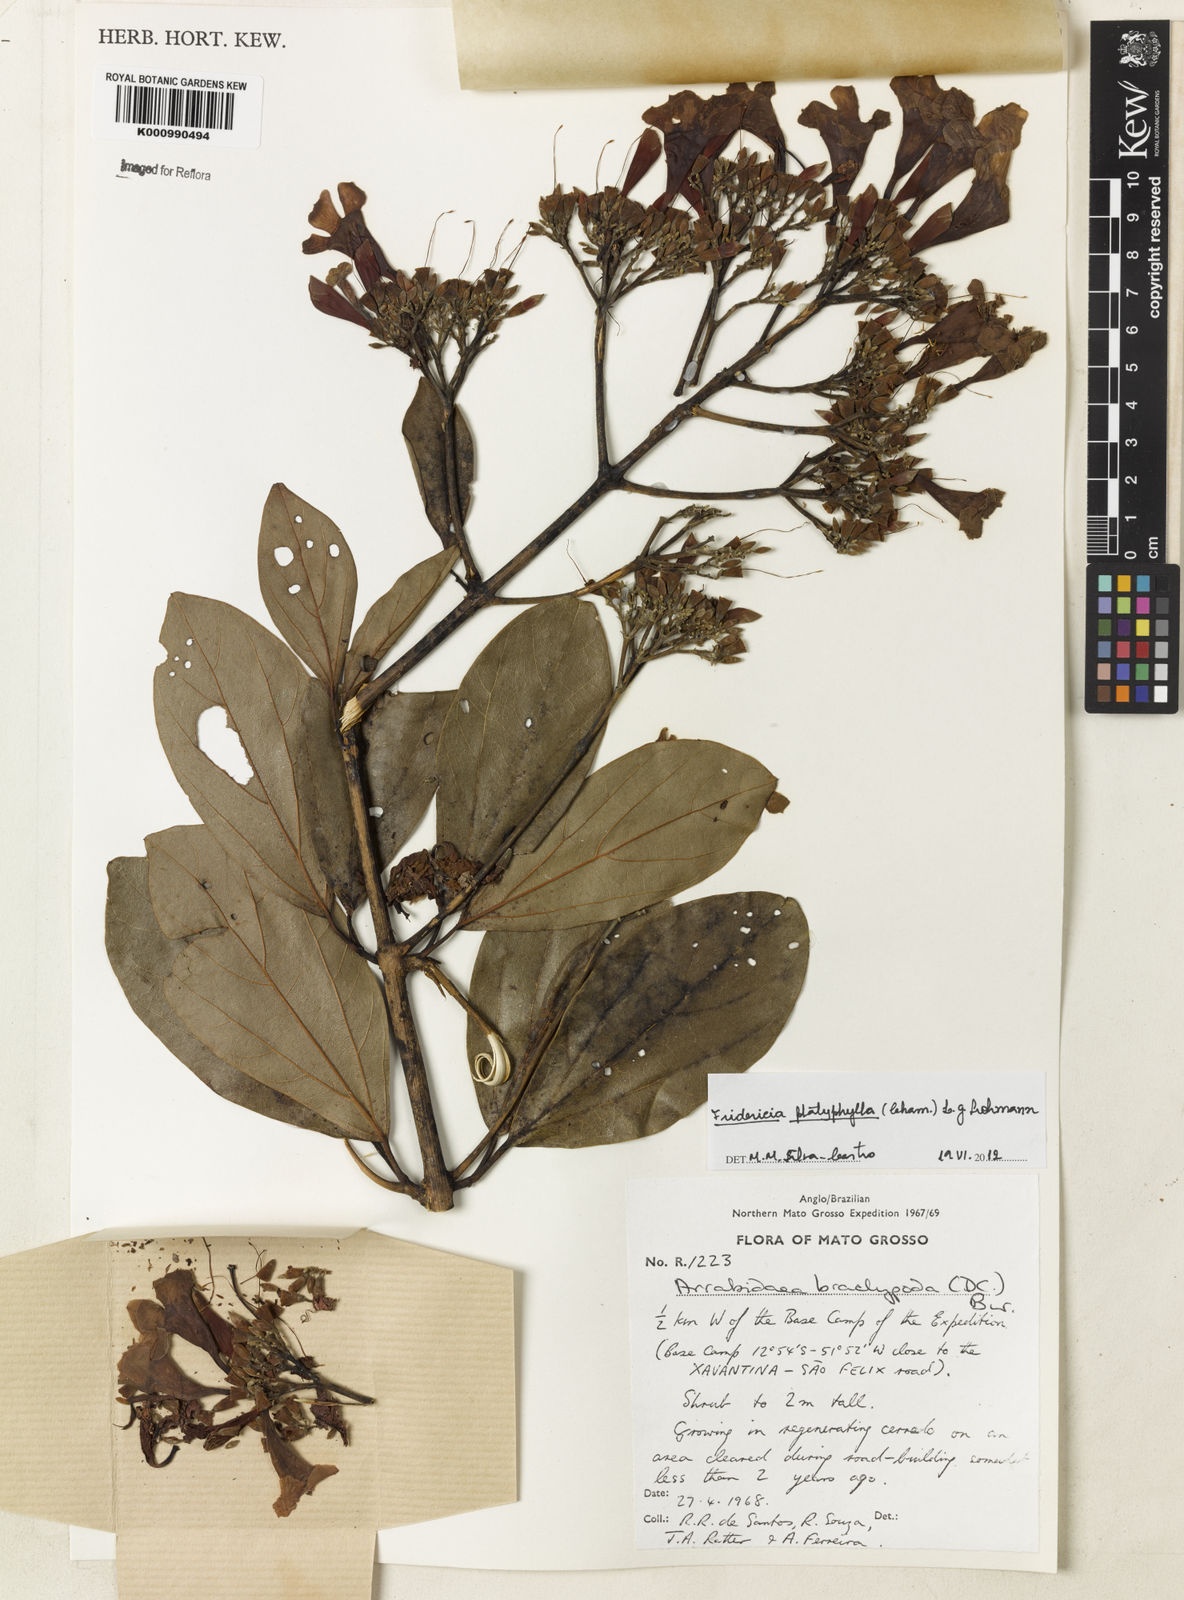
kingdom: Plantae
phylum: Tracheophyta
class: Magnoliopsida
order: Lamiales
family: Bignoniaceae
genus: Fridericia
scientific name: Fridericia platyphylla
